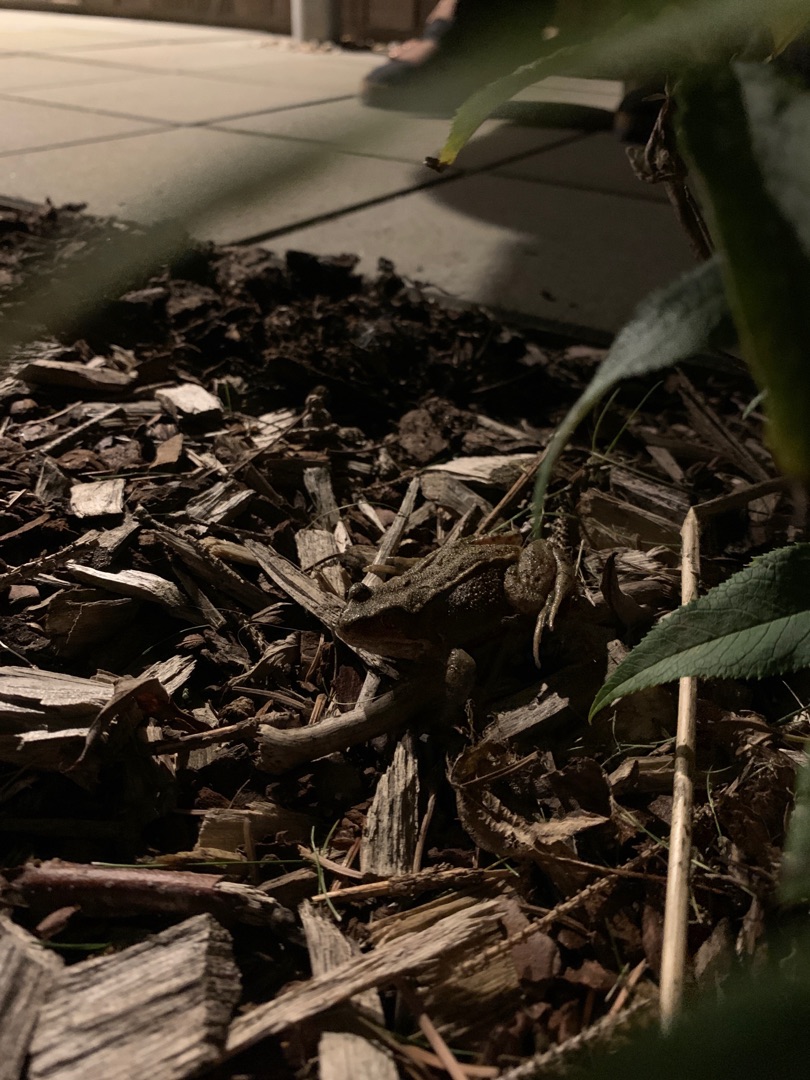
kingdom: Animalia
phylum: Chordata
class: Amphibia
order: Anura
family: Ranidae
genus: Rana
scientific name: Rana temporaria
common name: Butsnudet frø
